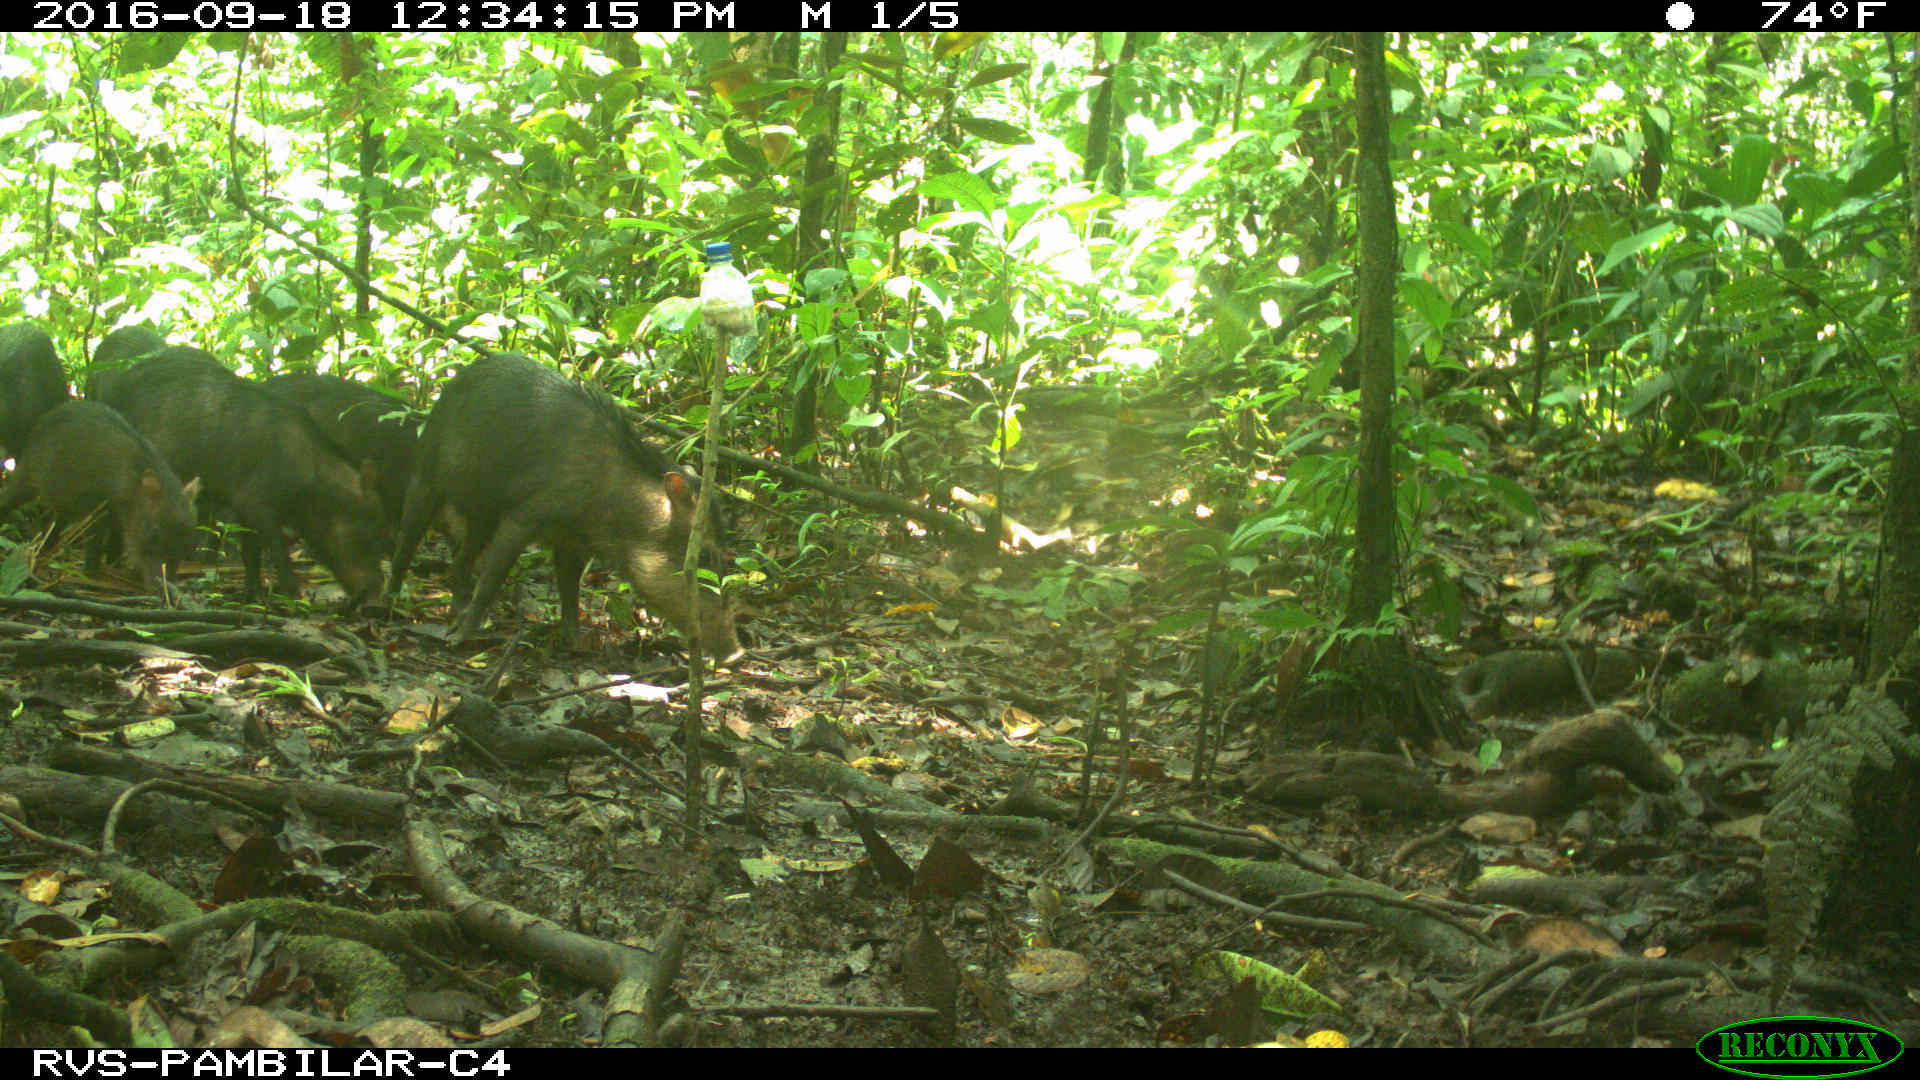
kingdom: Animalia
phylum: Chordata
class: Mammalia
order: Artiodactyla
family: Tayassuidae
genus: Tayassu
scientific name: Tayassu pecari
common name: White-lipped peccary
